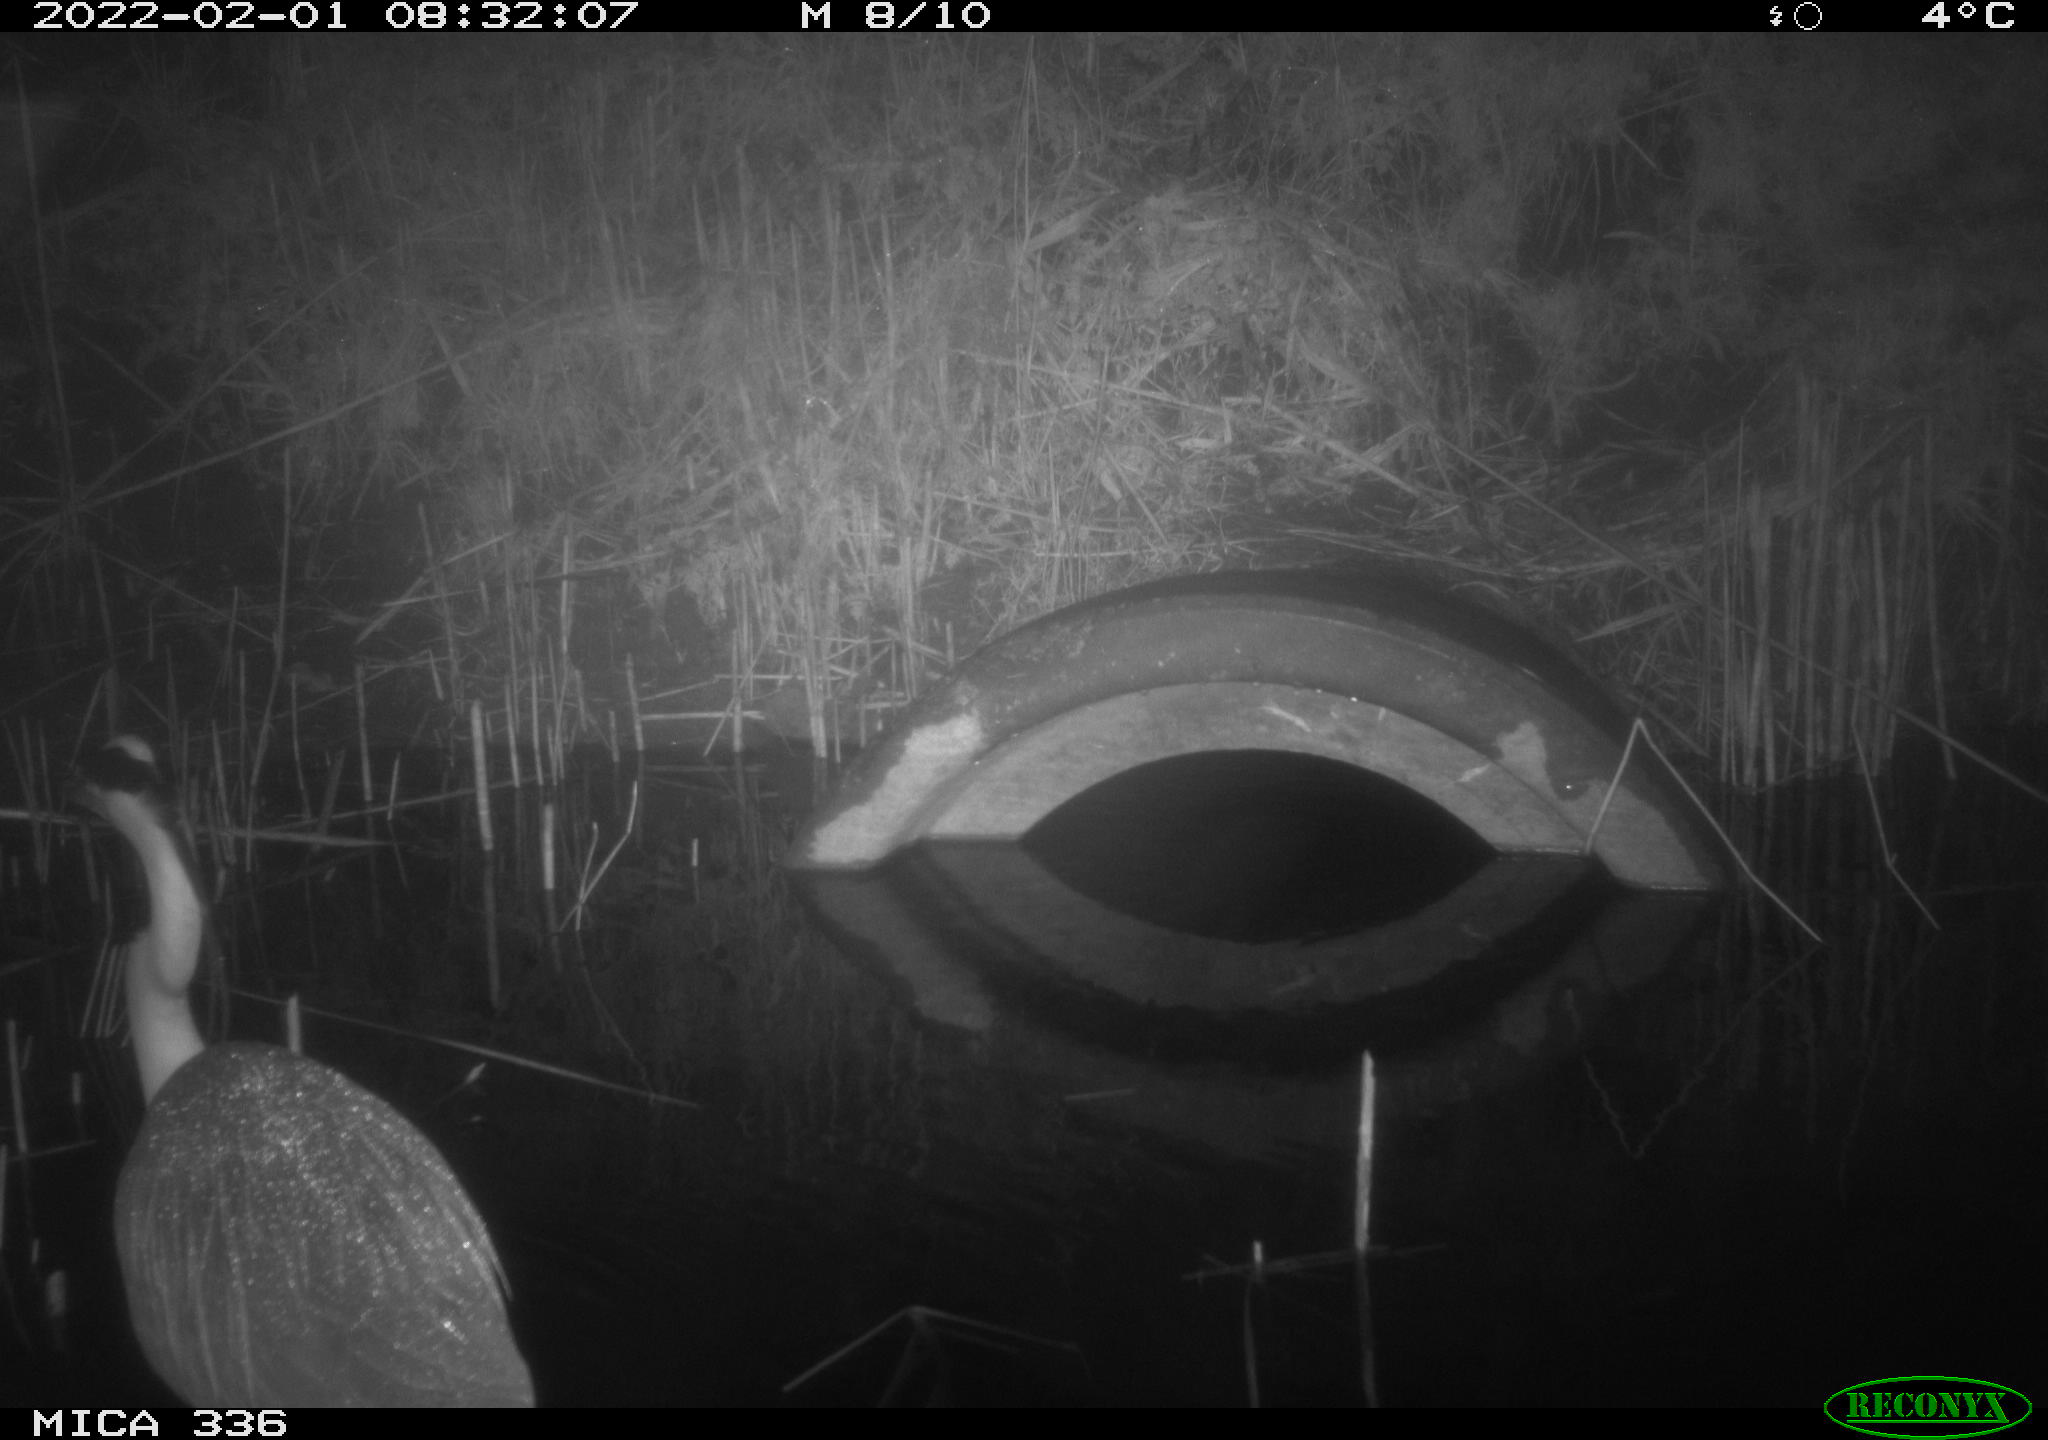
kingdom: Animalia
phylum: Chordata
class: Aves
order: Pelecaniformes
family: Ardeidae
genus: Ardea
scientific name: Ardea cinerea
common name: Grey heron
